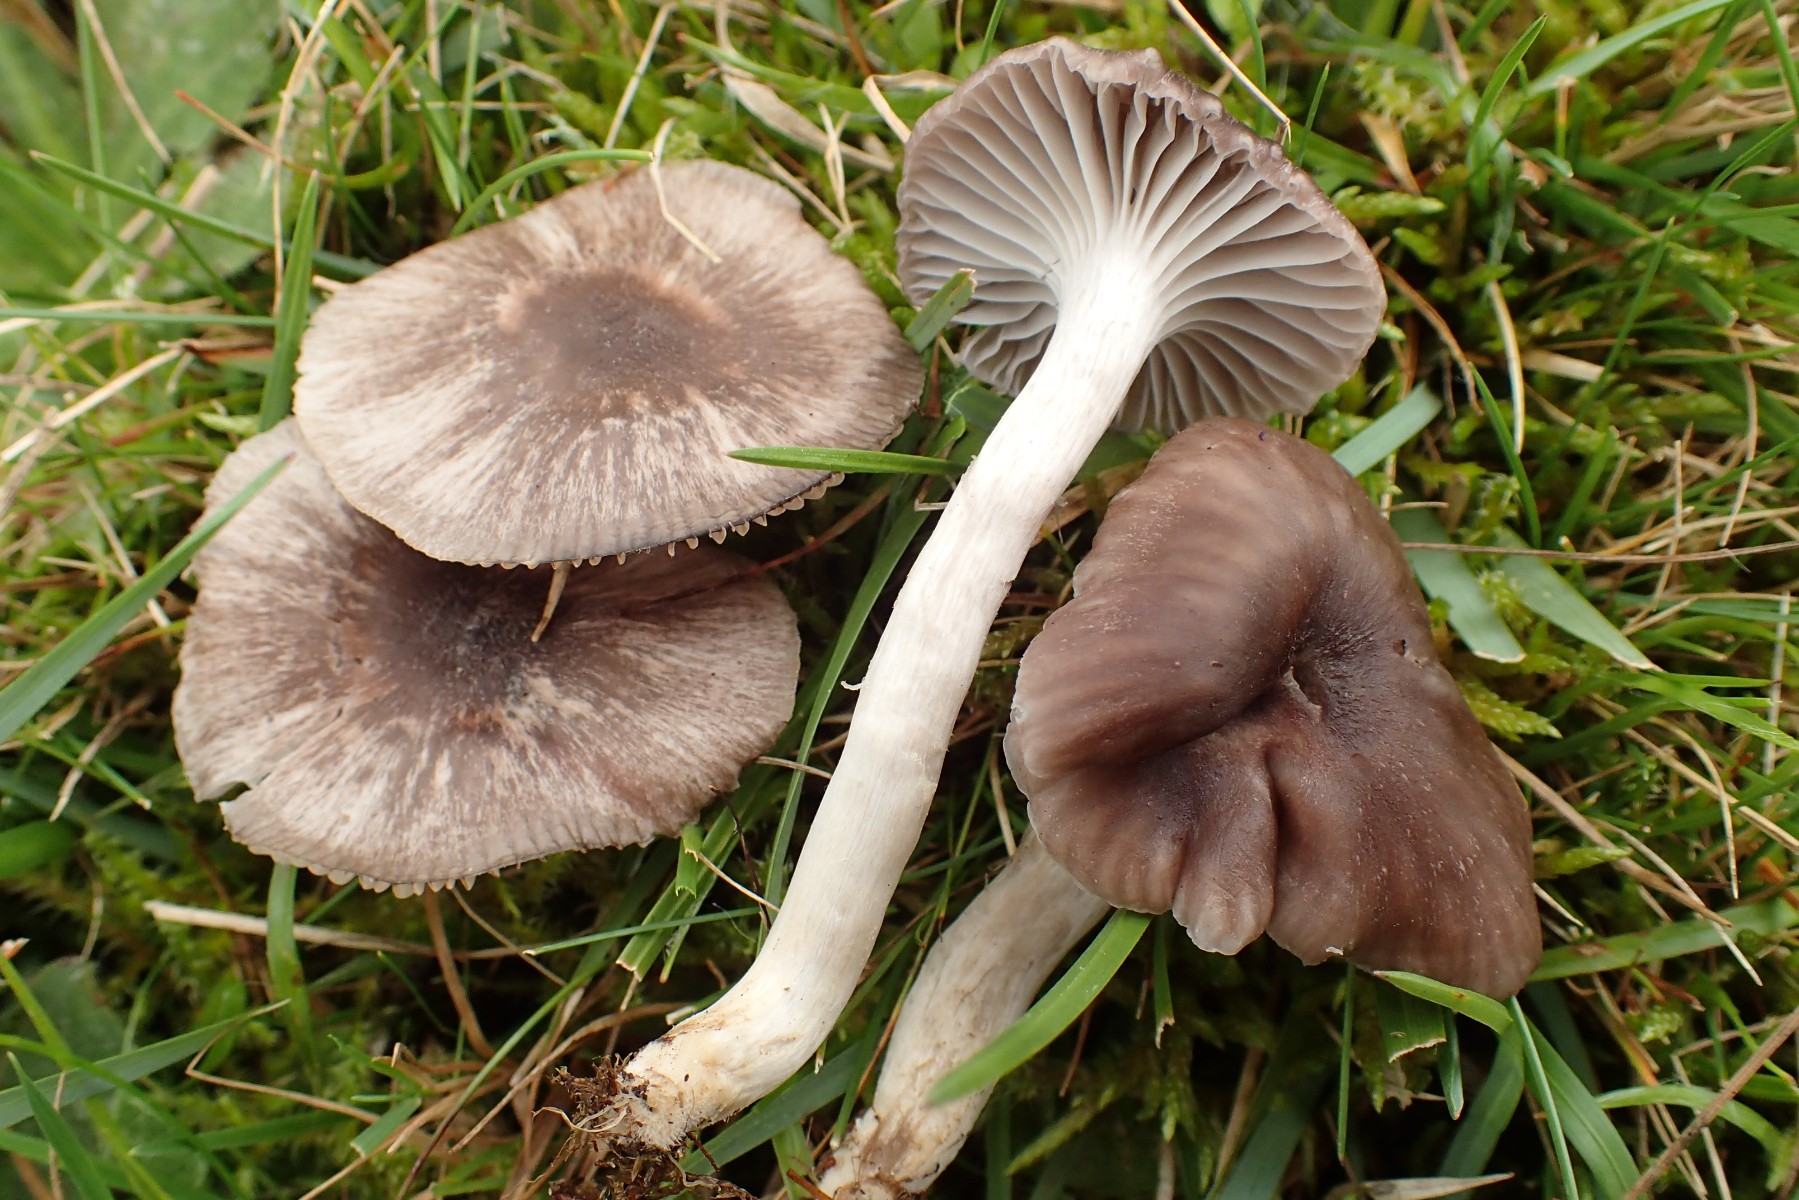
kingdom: Fungi
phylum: Basidiomycota
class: Agaricomycetes
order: Agaricales
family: Hygrophoraceae
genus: Cuphophyllus
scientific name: Cuphophyllus flavipes
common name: gulfodet vokshat
